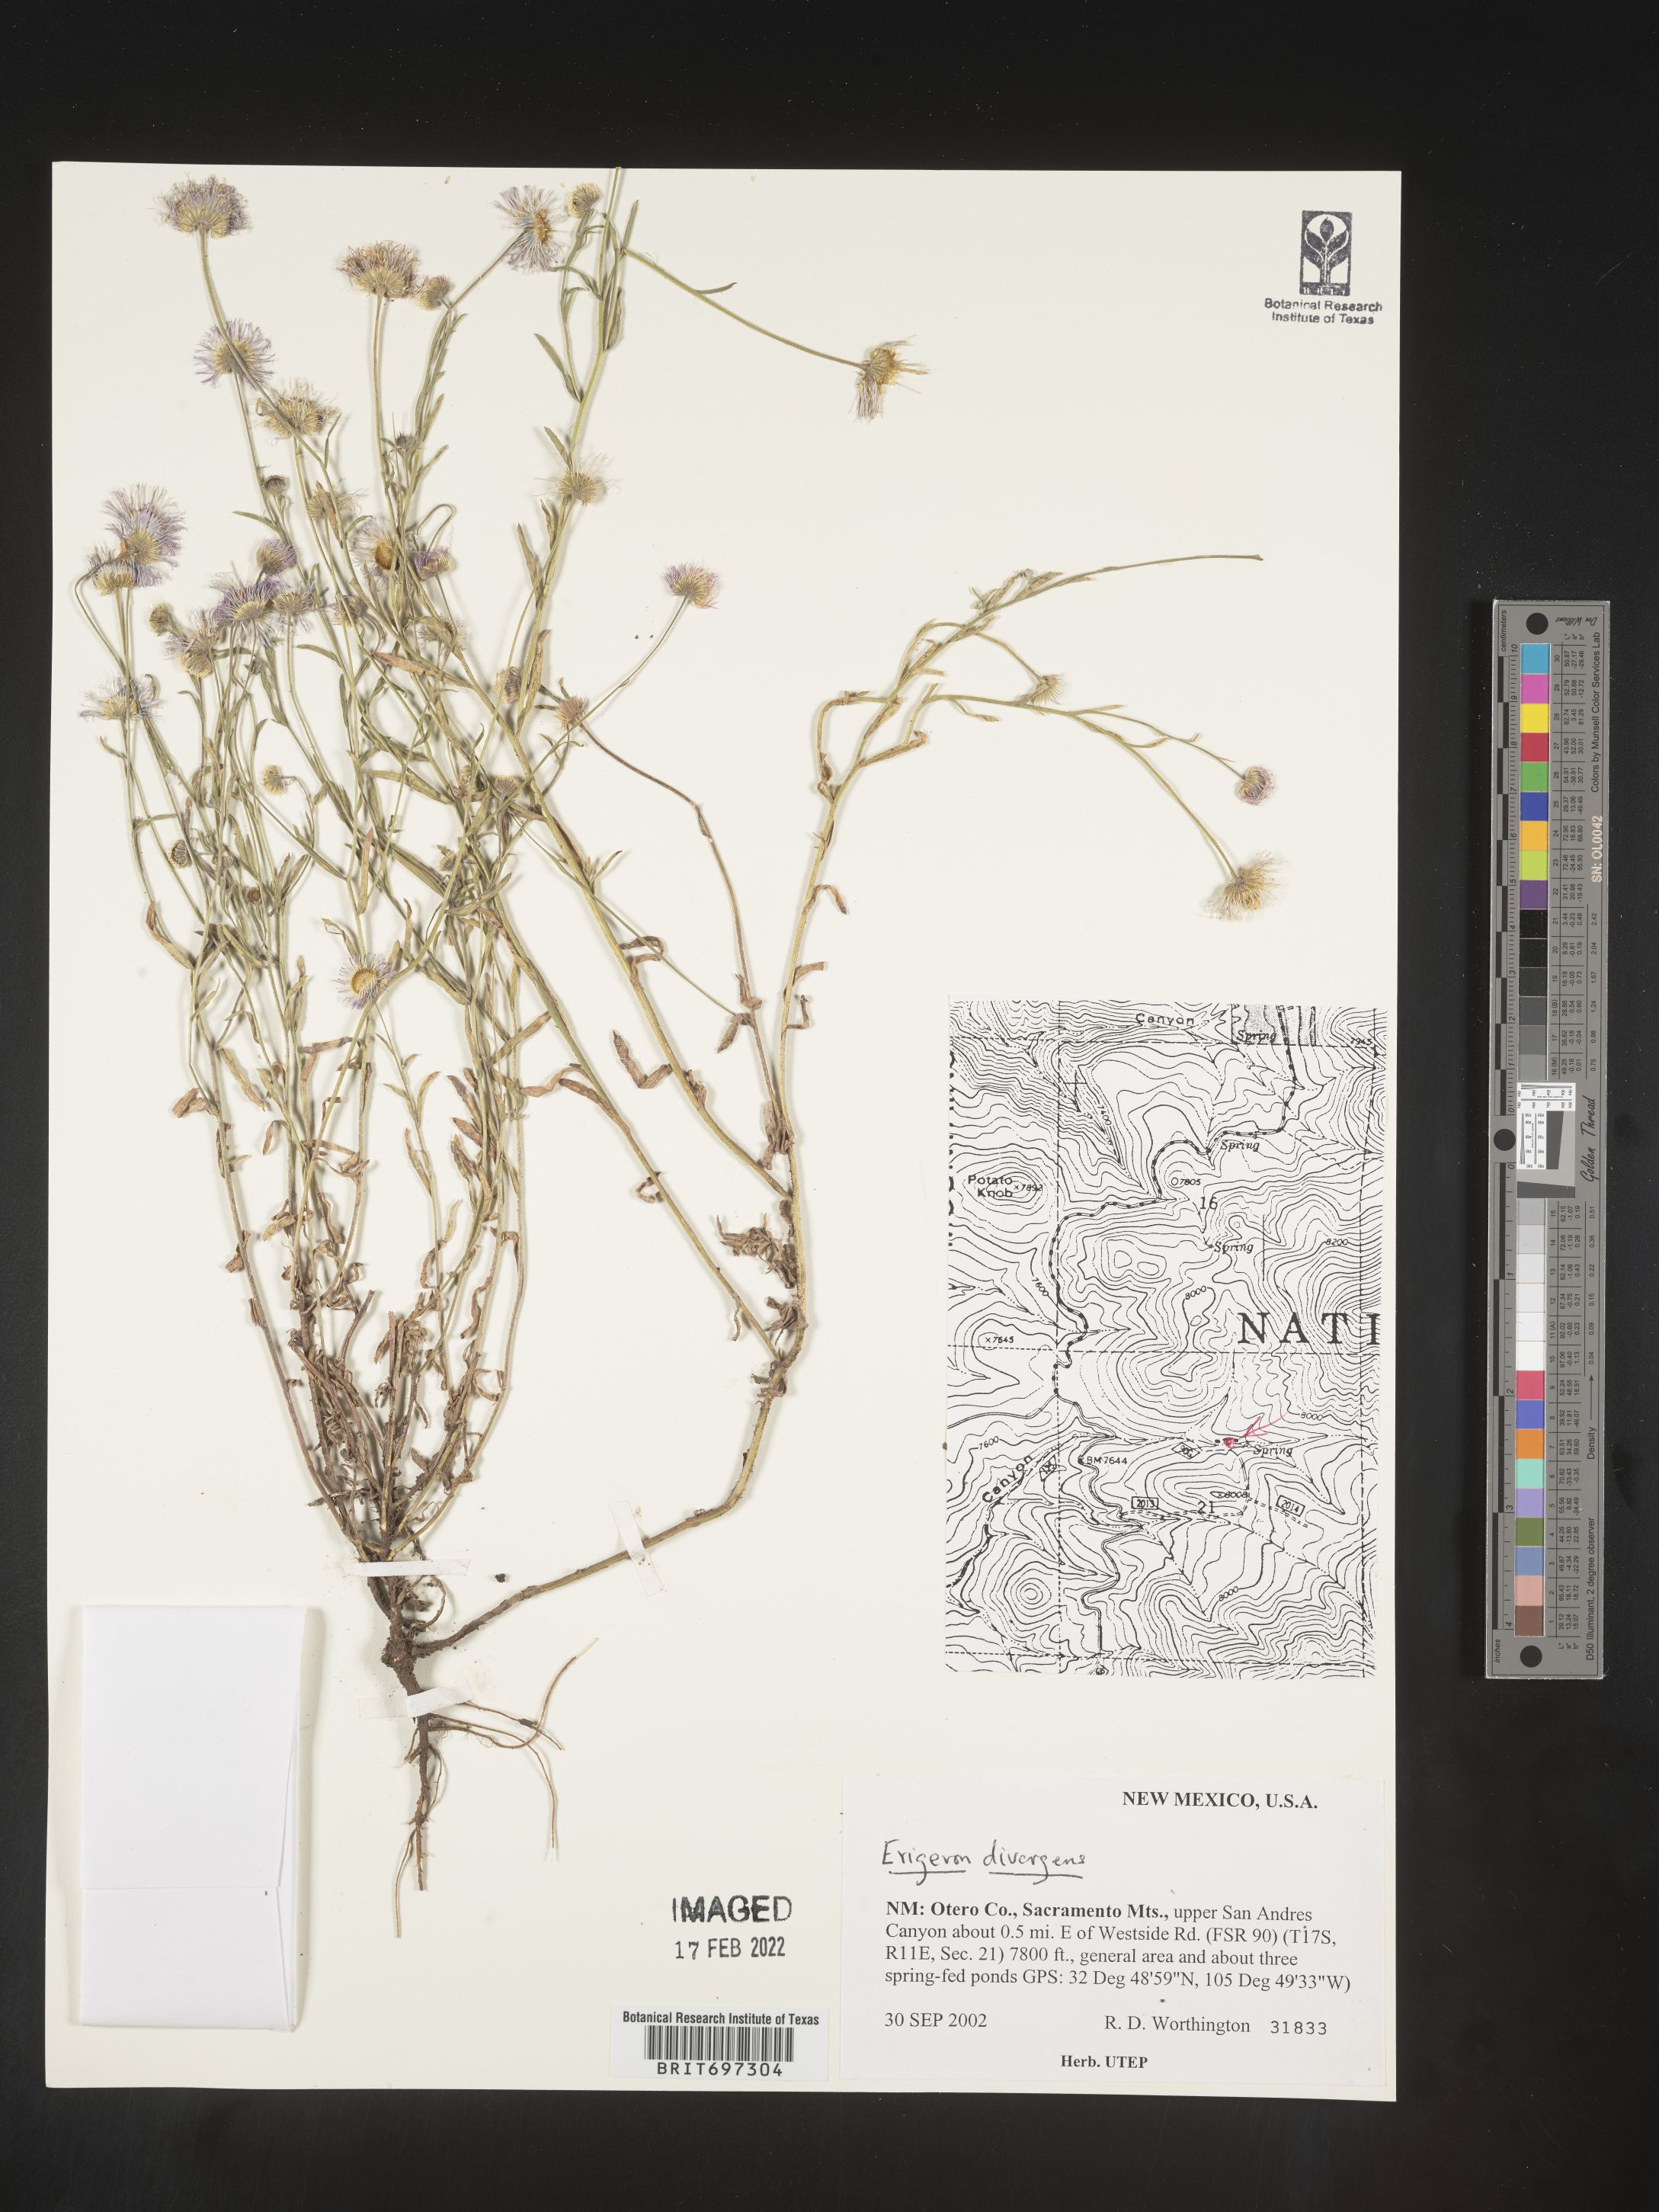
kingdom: Plantae
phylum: Tracheophyta
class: Magnoliopsida
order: Asterales
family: Asteraceae
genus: Erigeron
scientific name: Erigeron divergens
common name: Diffuse fleabane
